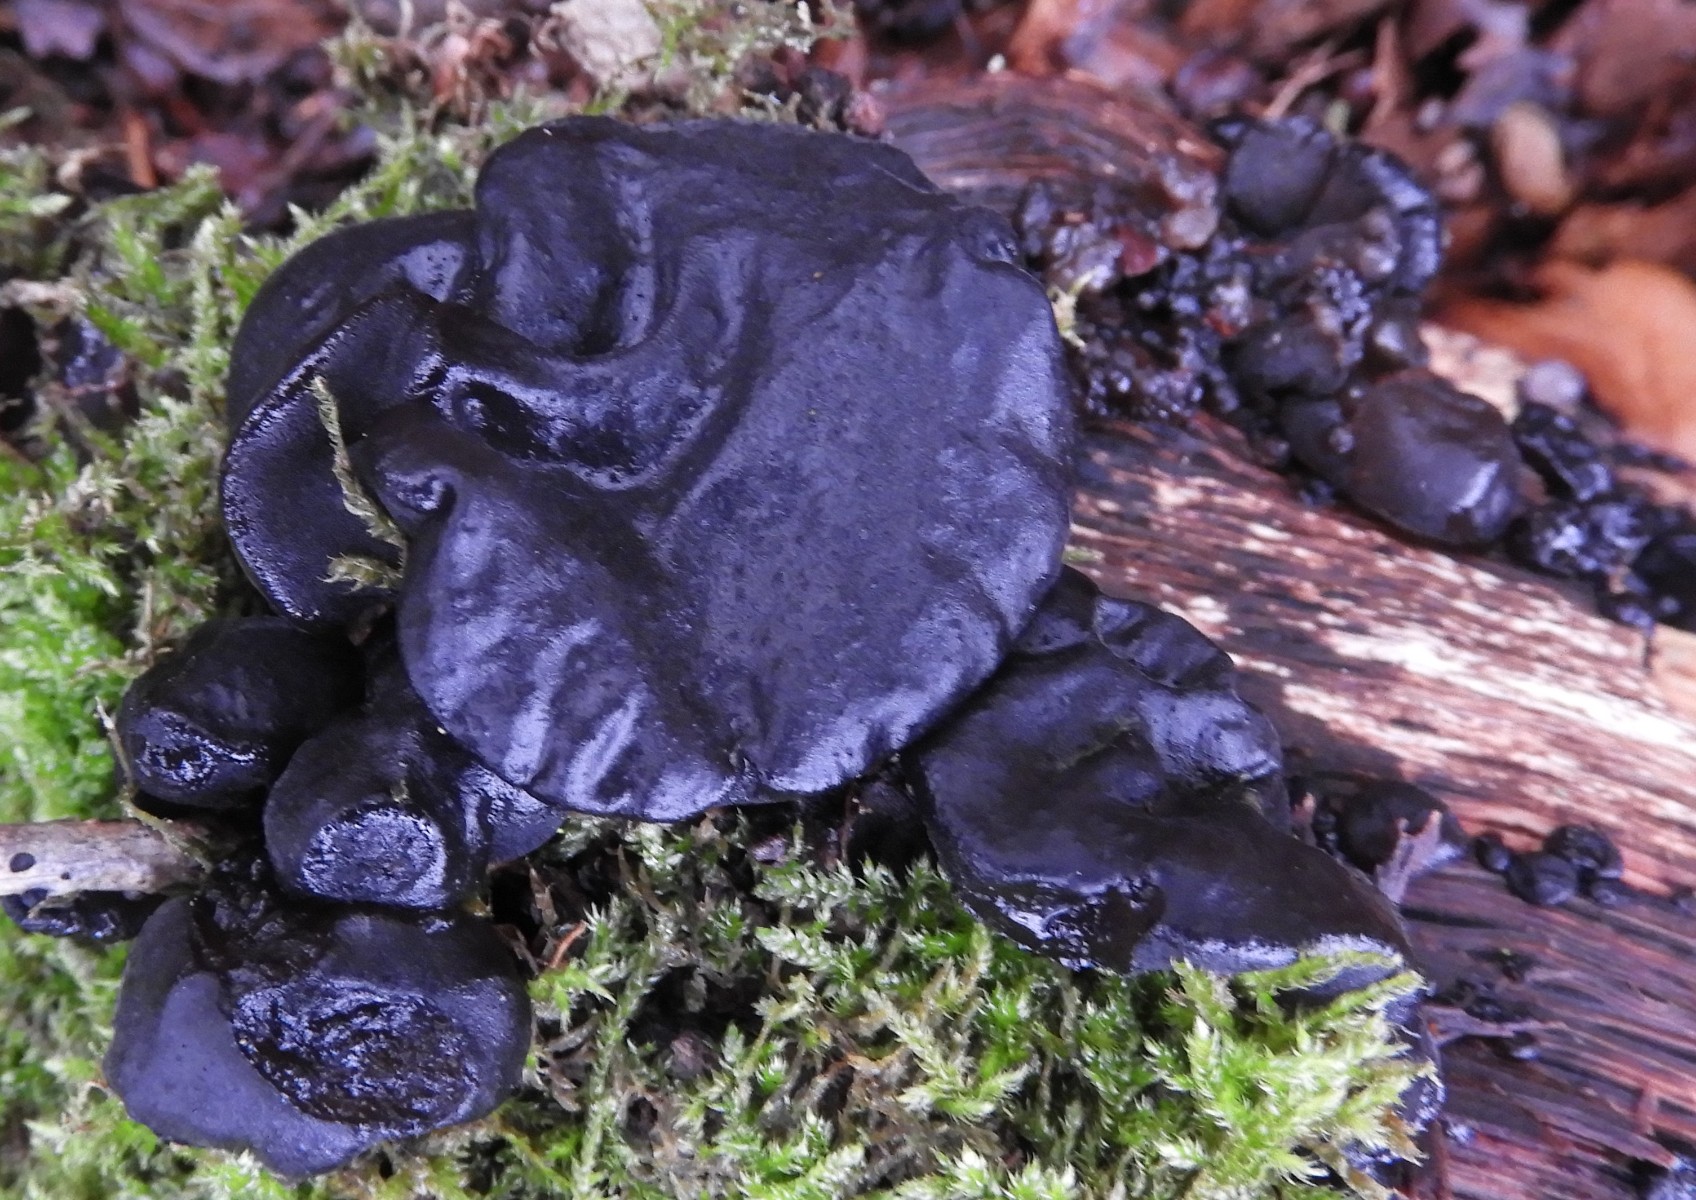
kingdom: Fungi
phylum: Basidiomycota
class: Agaricomycetes
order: Auriculariales
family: Auriculariaceae
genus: Exidia
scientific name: Exidia glandulosa
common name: ege-bævretop
